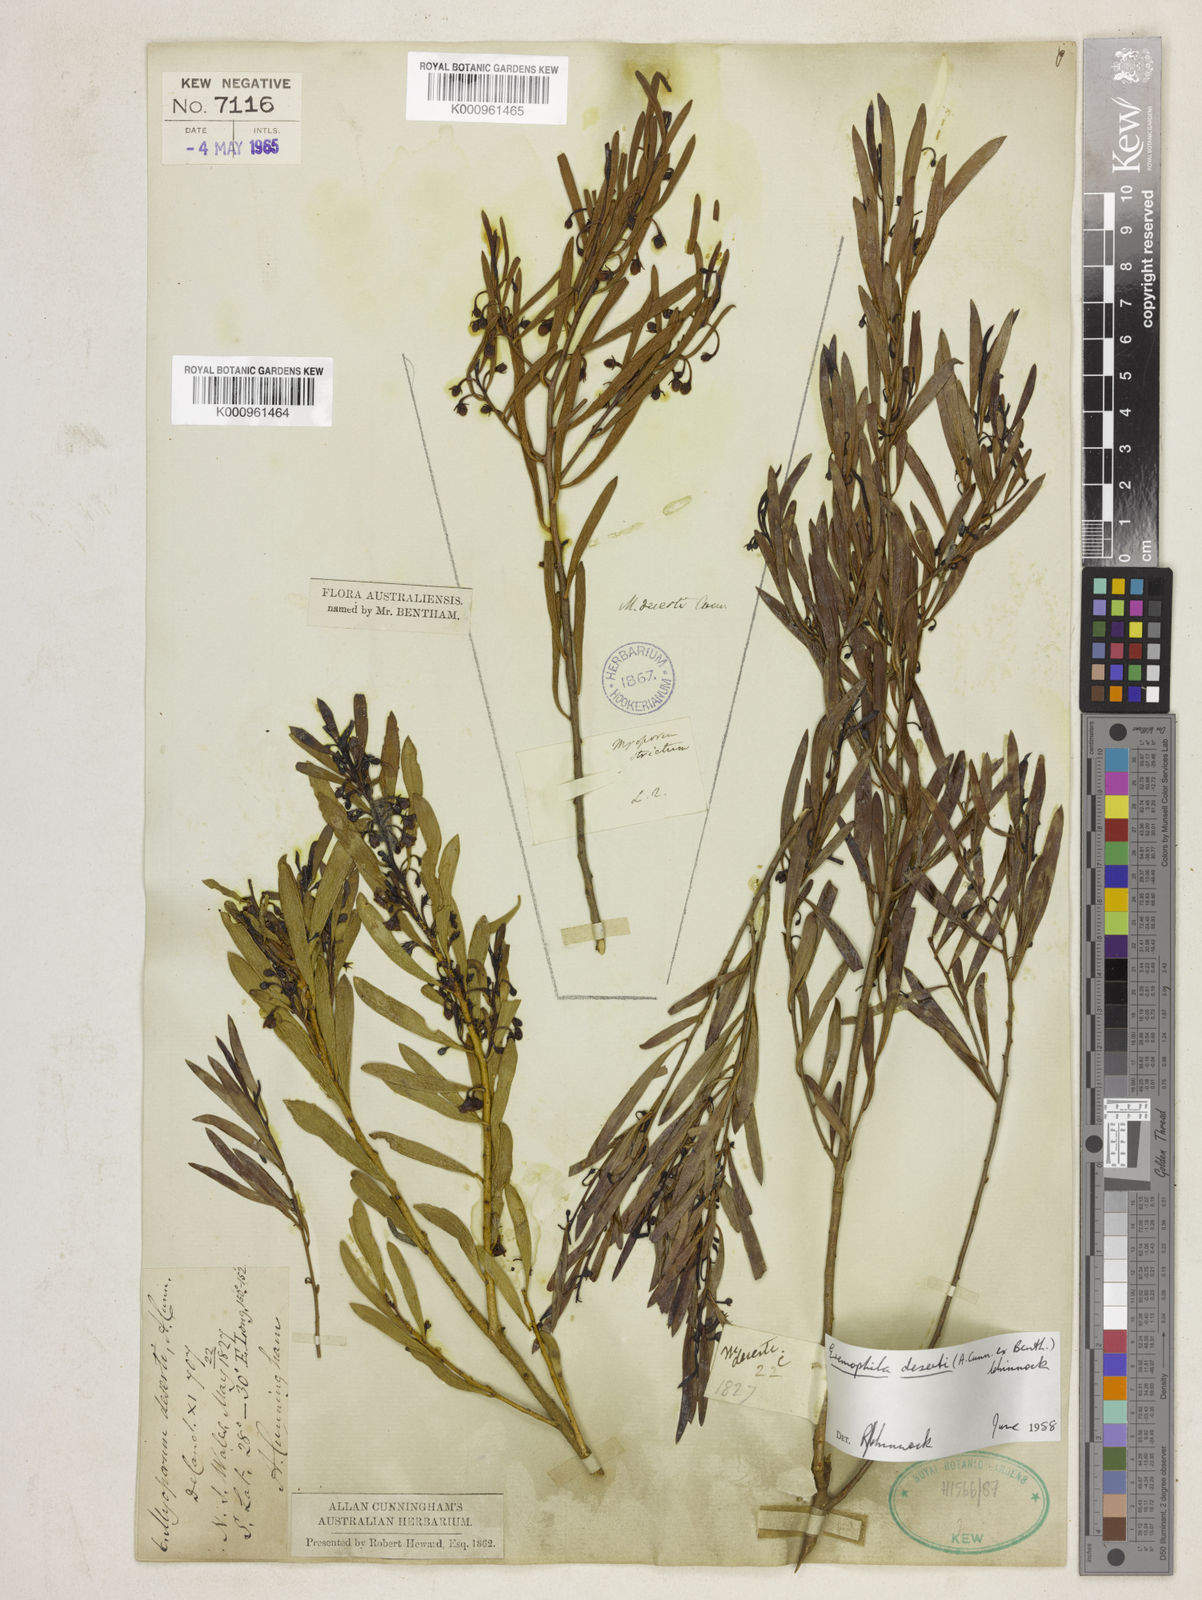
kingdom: Plantae
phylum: Tracheophyta
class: Magnoliopsida
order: Lamiales
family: Scrophulariaceae
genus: Eremophila
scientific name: Eremophila deserti
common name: Ellangowan-poisonbush
